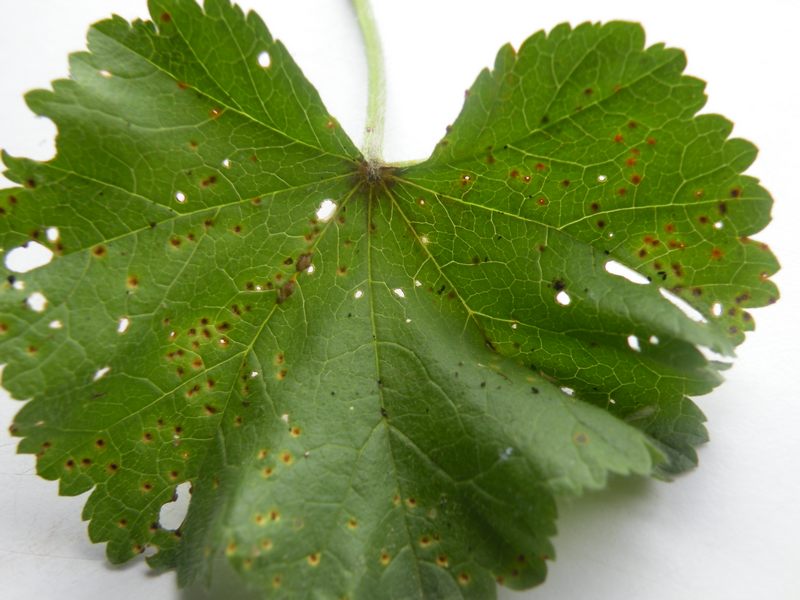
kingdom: Fungi
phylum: Basidiomycota
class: Pucciniomycetes
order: Pucciniales
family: Pucciniaceae
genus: Puccinia
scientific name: Puccinia malvacearum
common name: stokrose-tvecellerust
